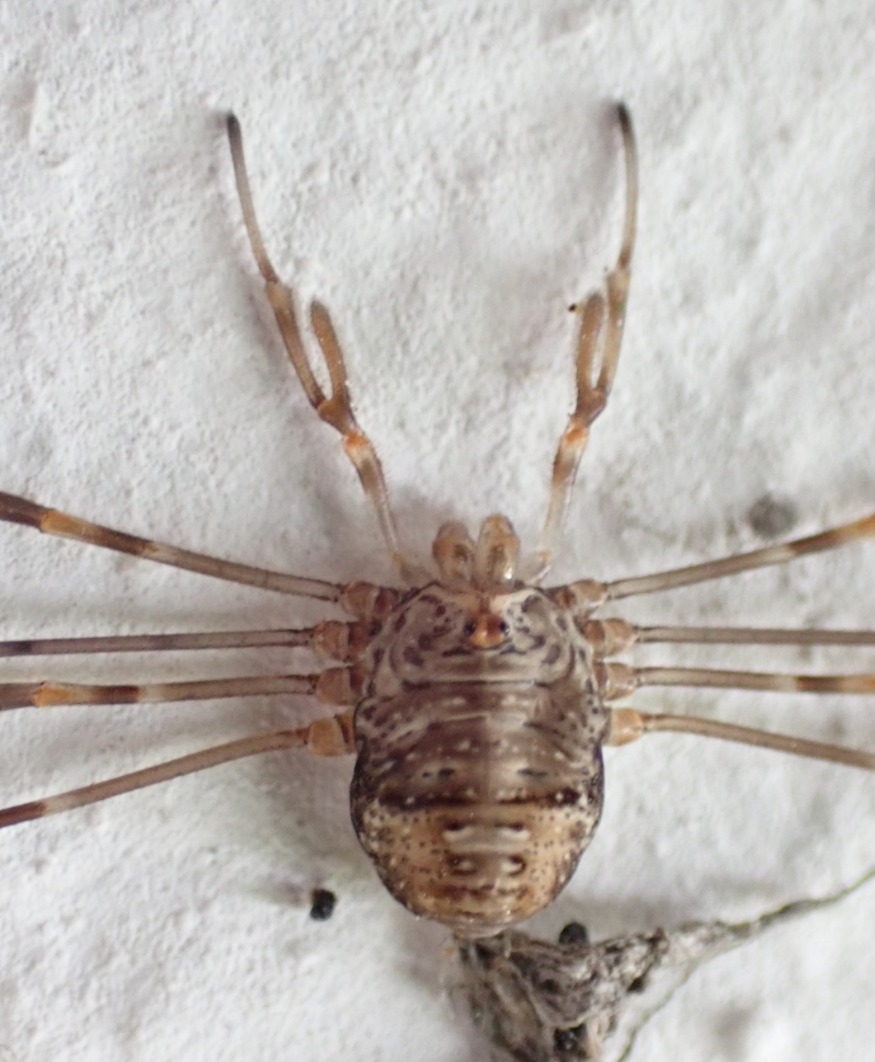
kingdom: Animalia
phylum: Arthropoda
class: Arachnida
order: Opiliones
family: Phalangiidae
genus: Dicranopalpus
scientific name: Dicranopalpus ramosus
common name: Gaffelmejer
